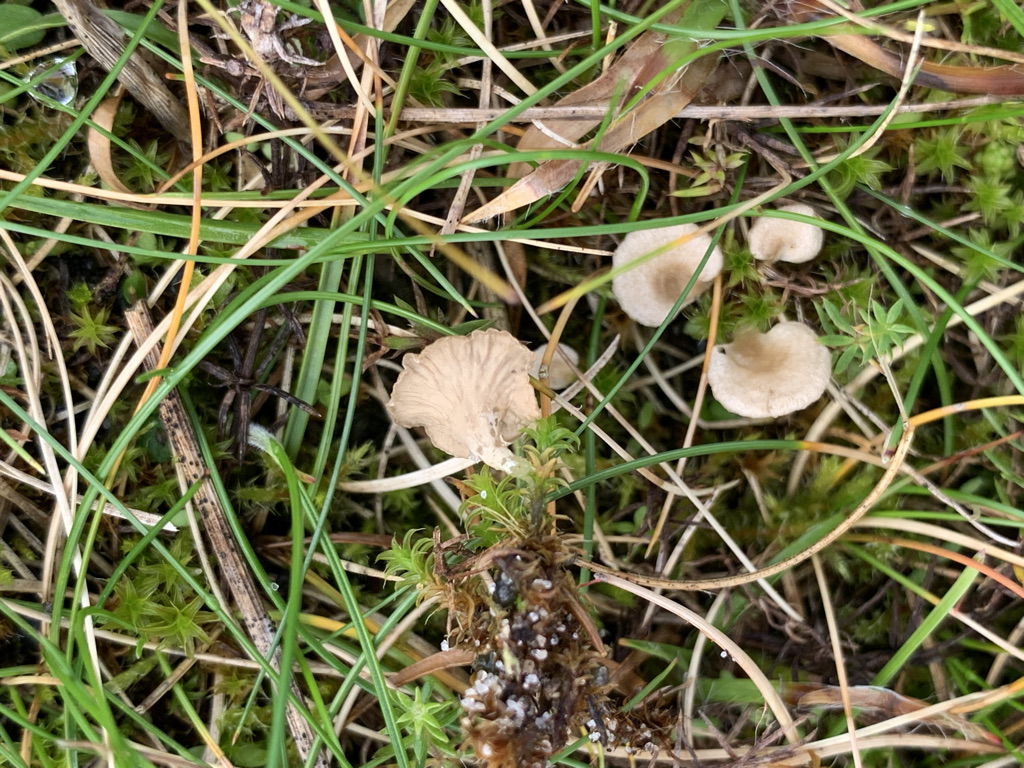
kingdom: Fungi
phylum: Basidiomycota
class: Agaricomycetes
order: Agaricales
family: Hygrophoraceae
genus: Arrhenia
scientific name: Arrhenia spathulata
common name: skæv fontænehat
